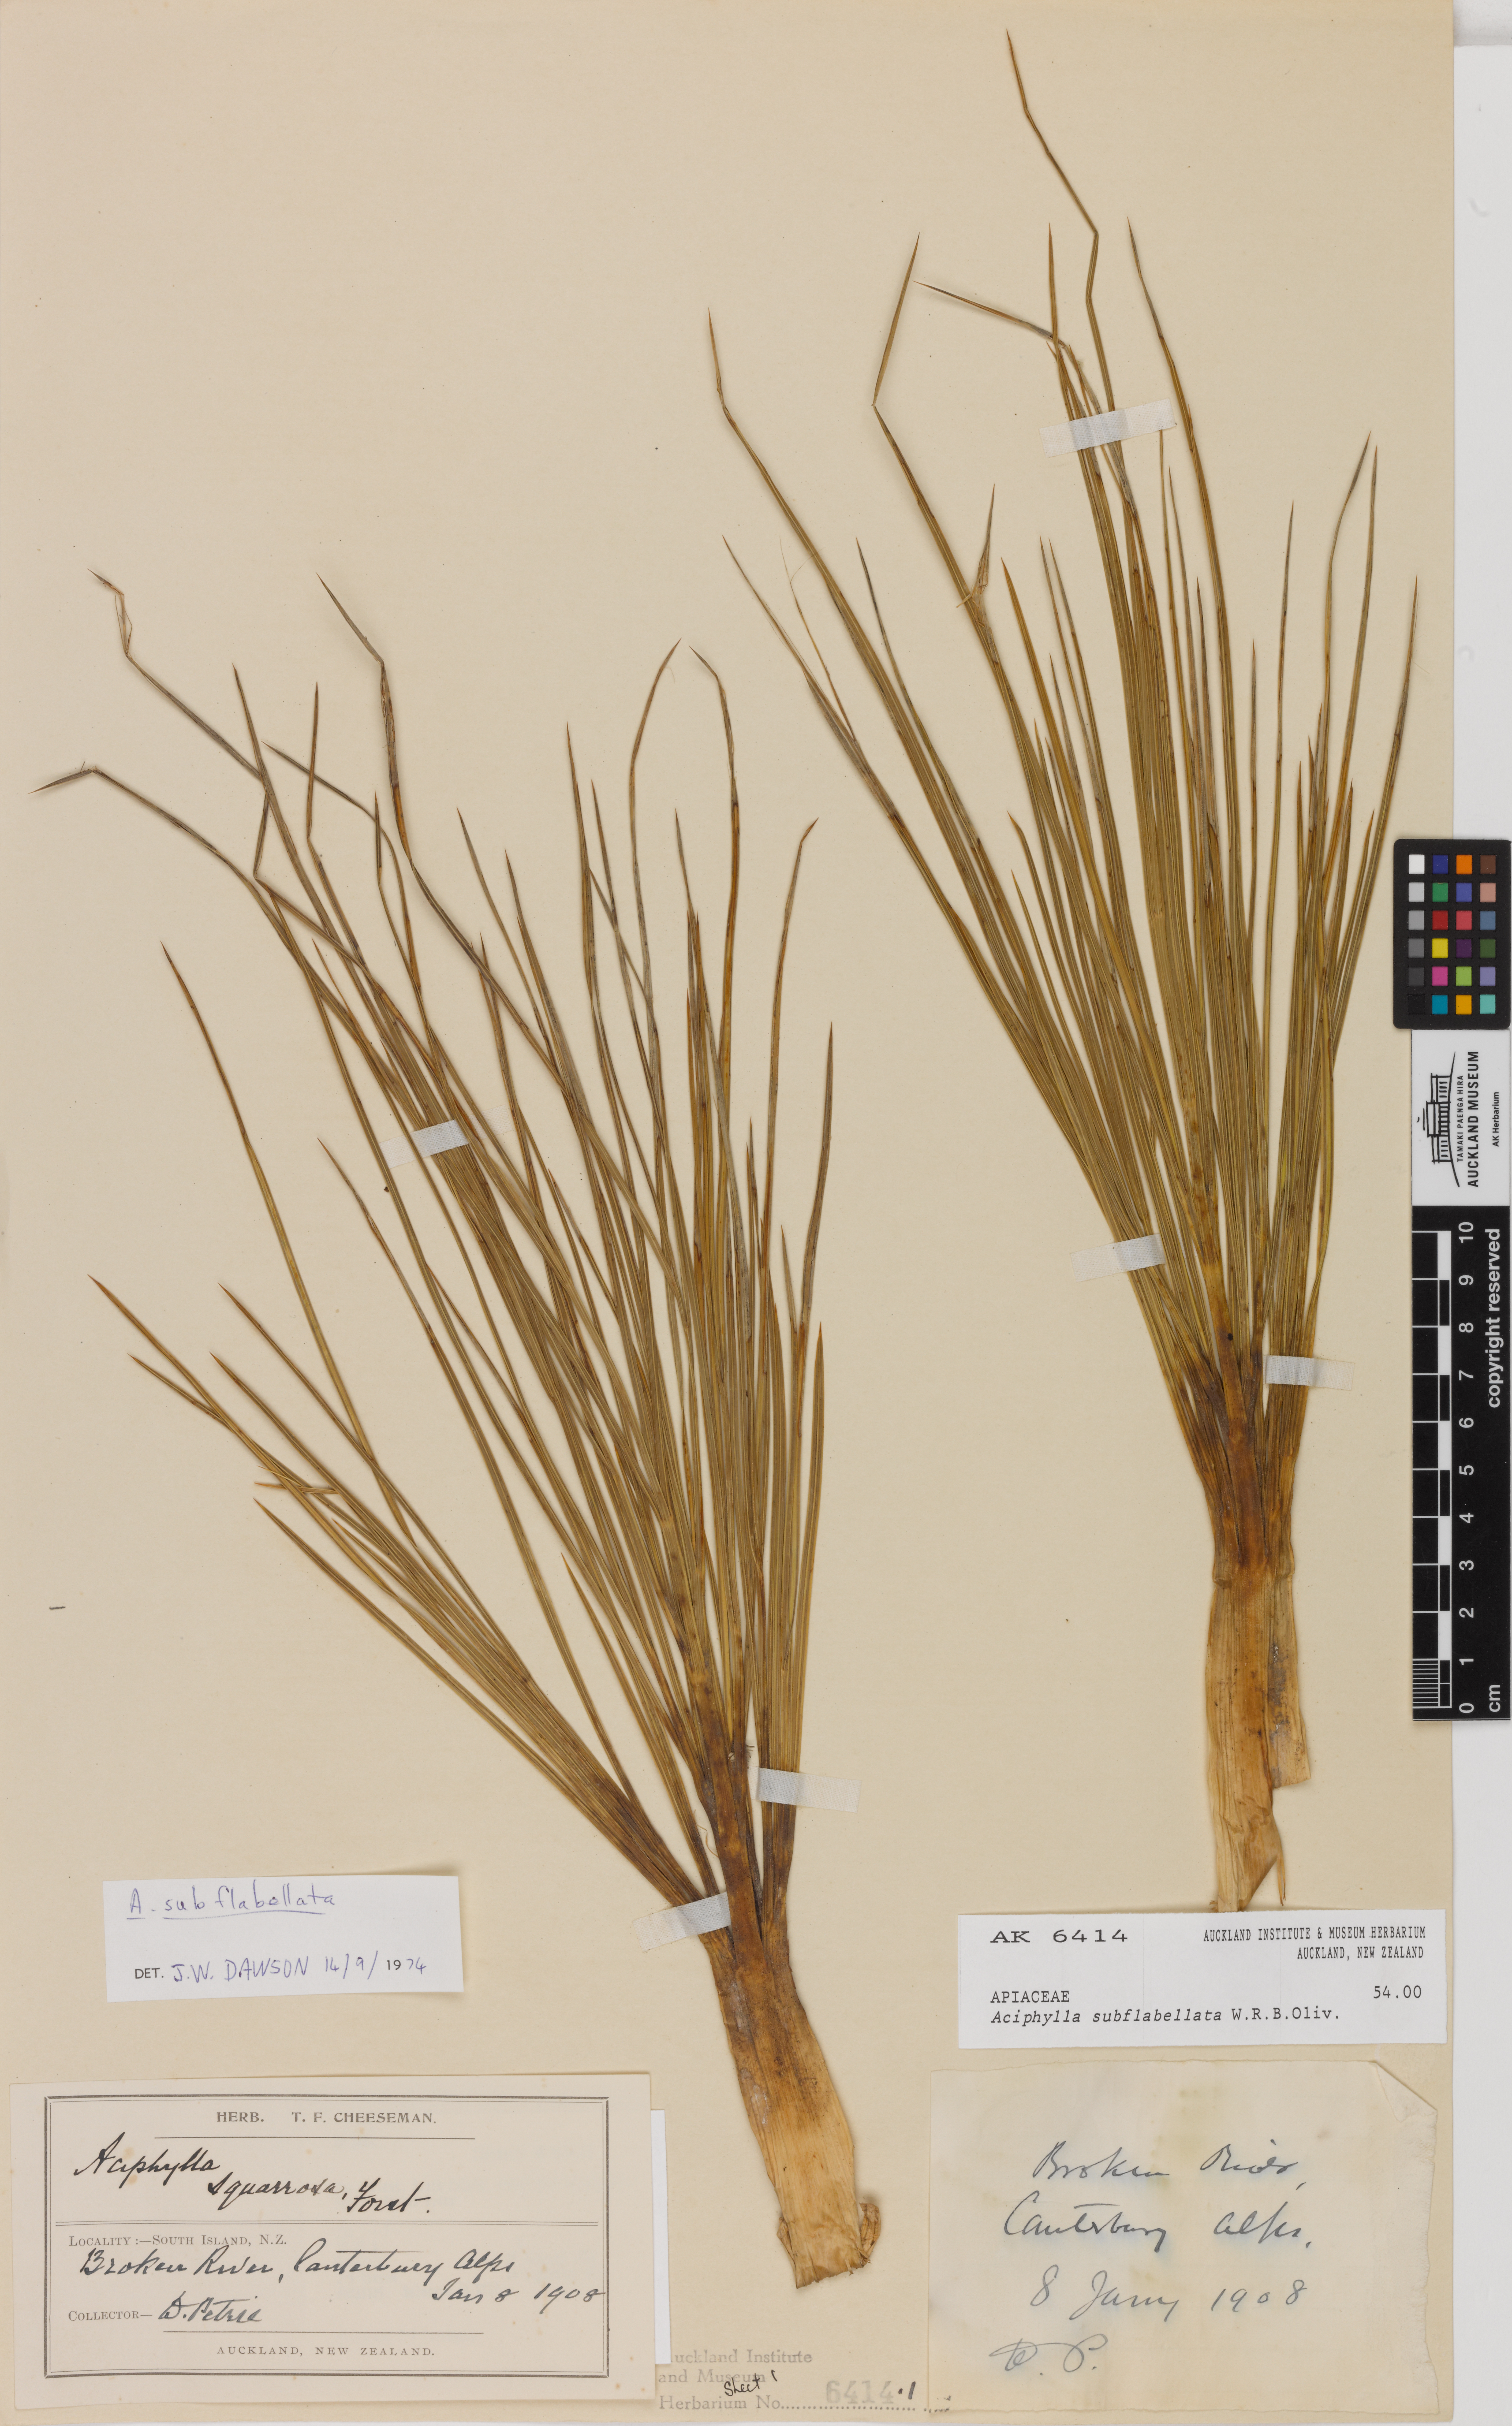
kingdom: Plantae
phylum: Tracheophyta
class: Magnoliopsida
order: Apiales
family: Apiaceae
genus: Aciphylla
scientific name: Aciphylla subflabellata
